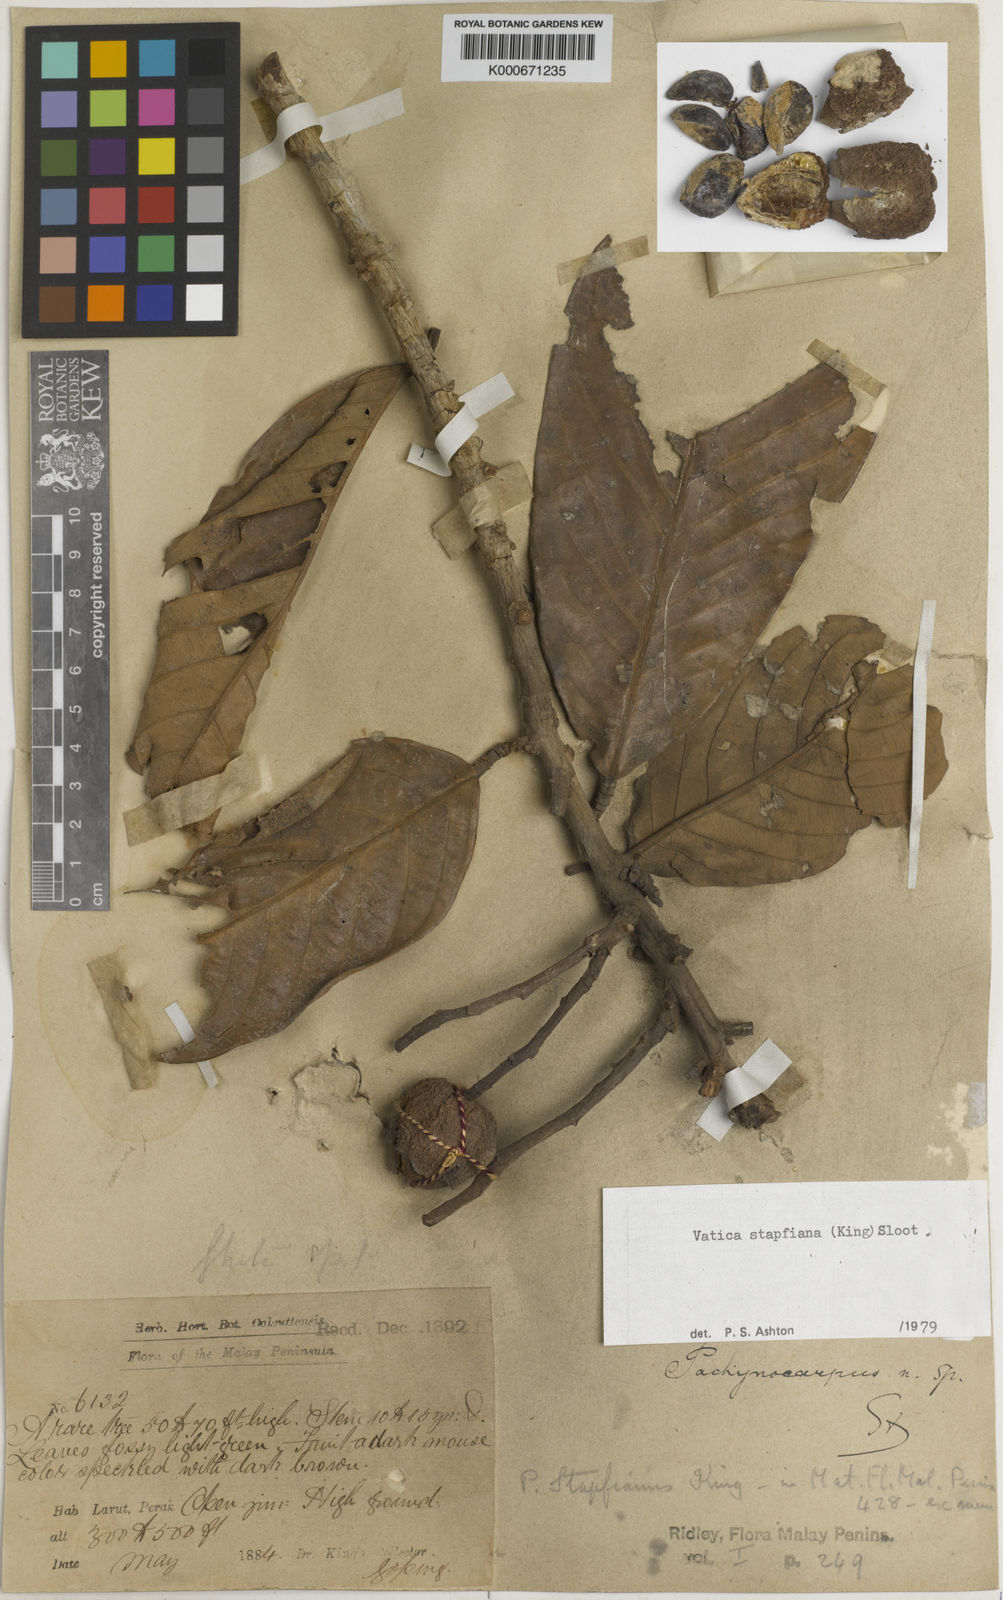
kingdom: Plantae
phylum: Tracheophyta
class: Magnoliopsida
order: Malvales
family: Dipterocarpaceae
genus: Vatica
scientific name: Vatica stapfiana
